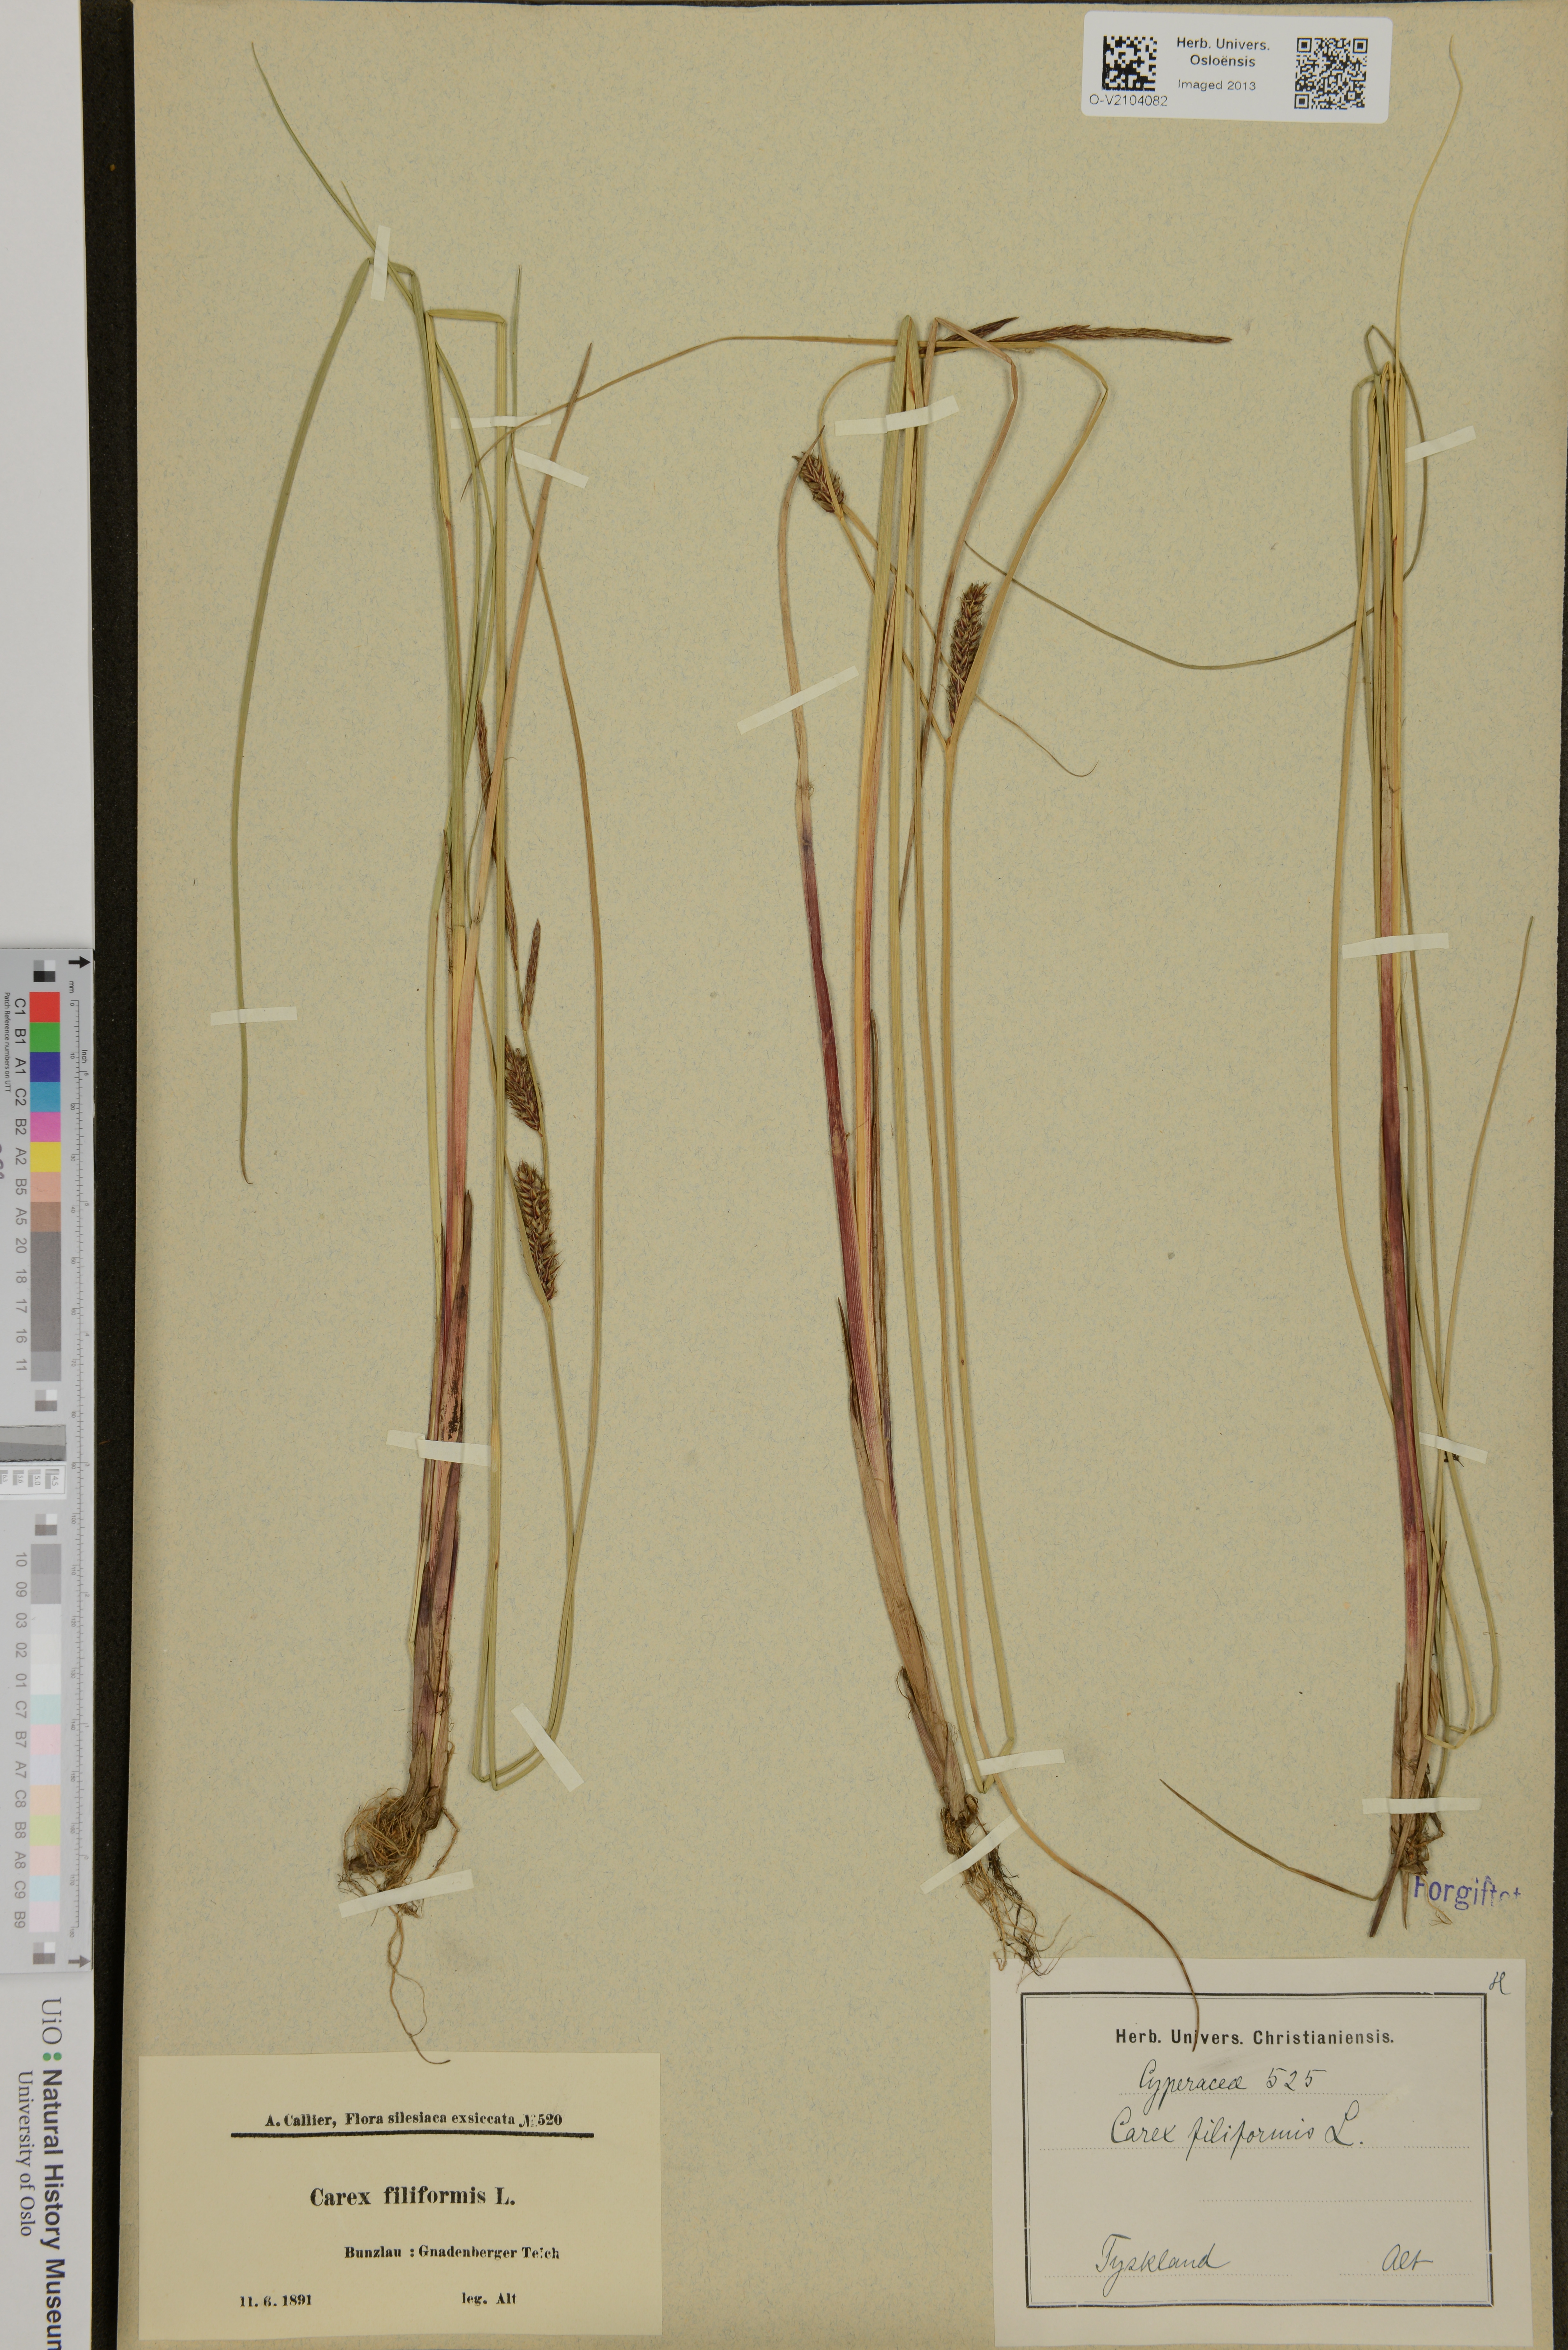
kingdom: Plantae
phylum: Tracheophyta
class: Liliopsida
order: Poales
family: Cyperaceae
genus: Carex
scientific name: Carex montana
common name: Soft-leaved sedge
